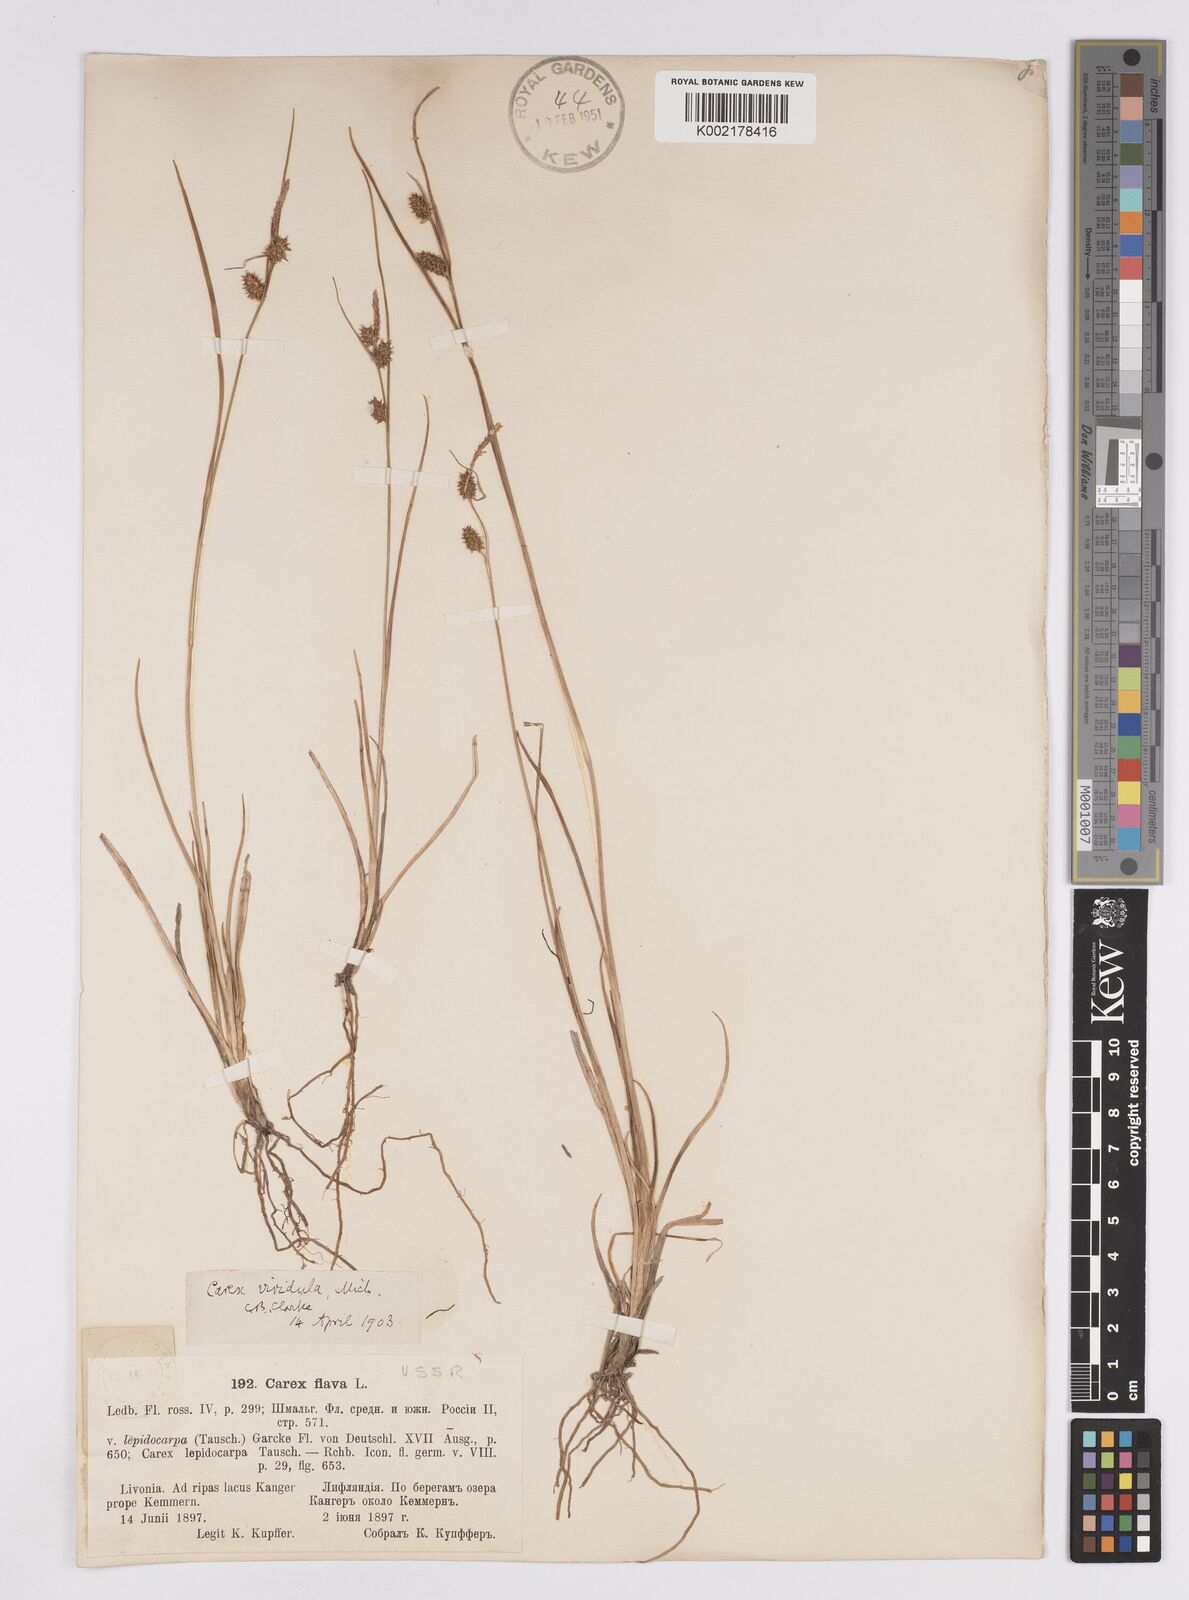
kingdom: Plantae
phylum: Tracheophyta
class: Liliopsida
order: Poales
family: Cyperaceae
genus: Carex
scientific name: Carex demissa
